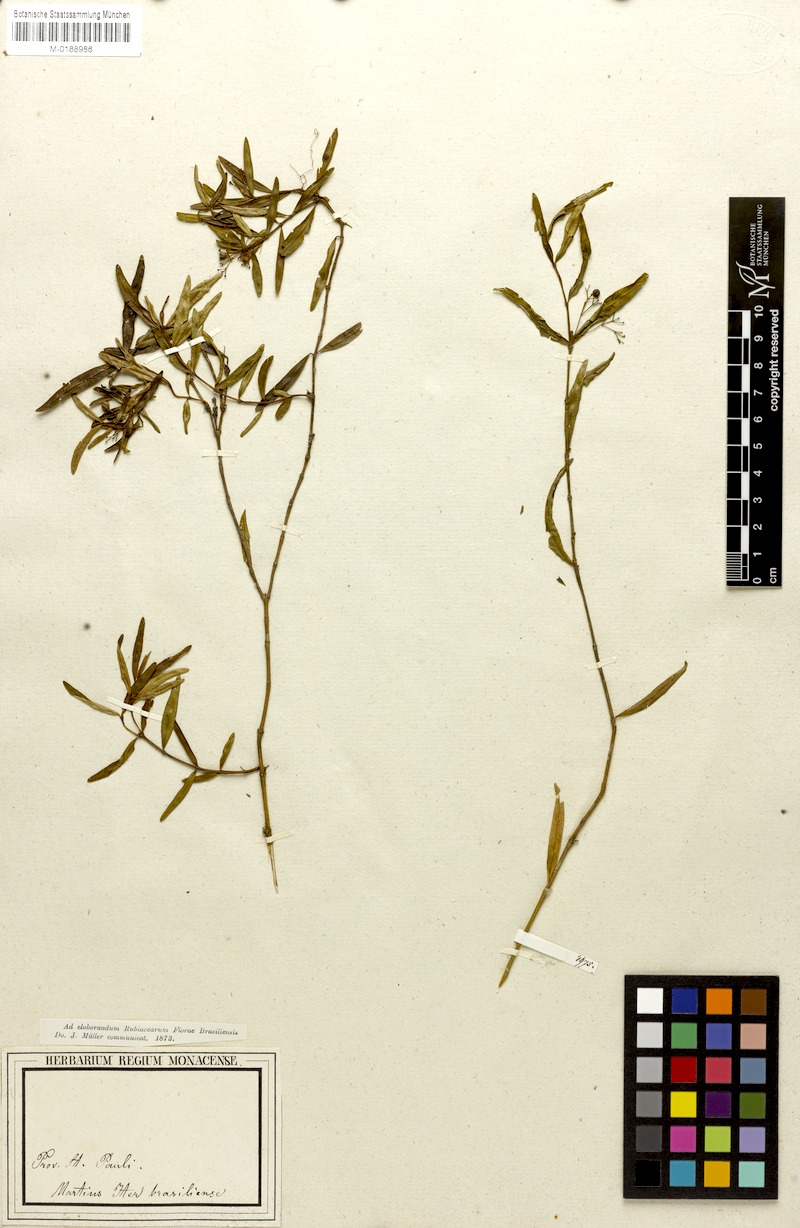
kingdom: Plantae
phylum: Tracheophyta
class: Magnoliopsida
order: Gentianales
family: Rubiaceae
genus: Psychotria
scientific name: Psychotria microcarpa
